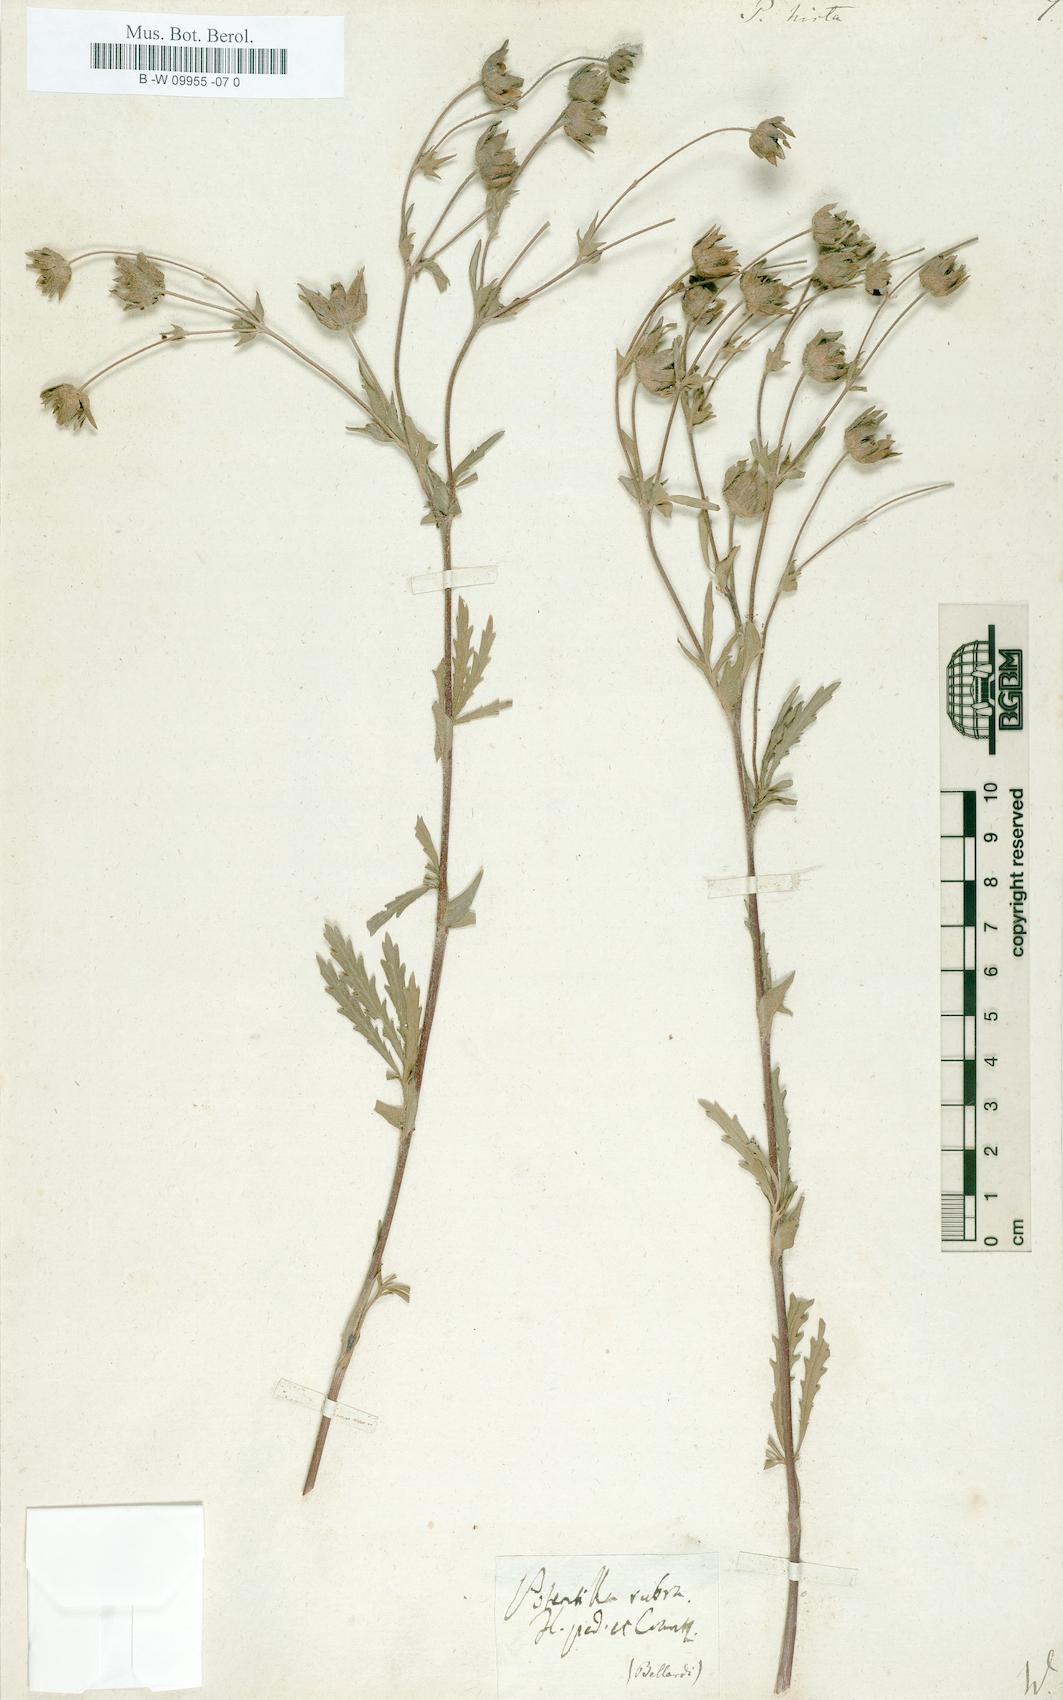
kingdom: Plantae
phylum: Tracheophyta
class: Magnoliopsida
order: Rosales
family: Rosaceae
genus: Potentilla
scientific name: Potentilla hirta
